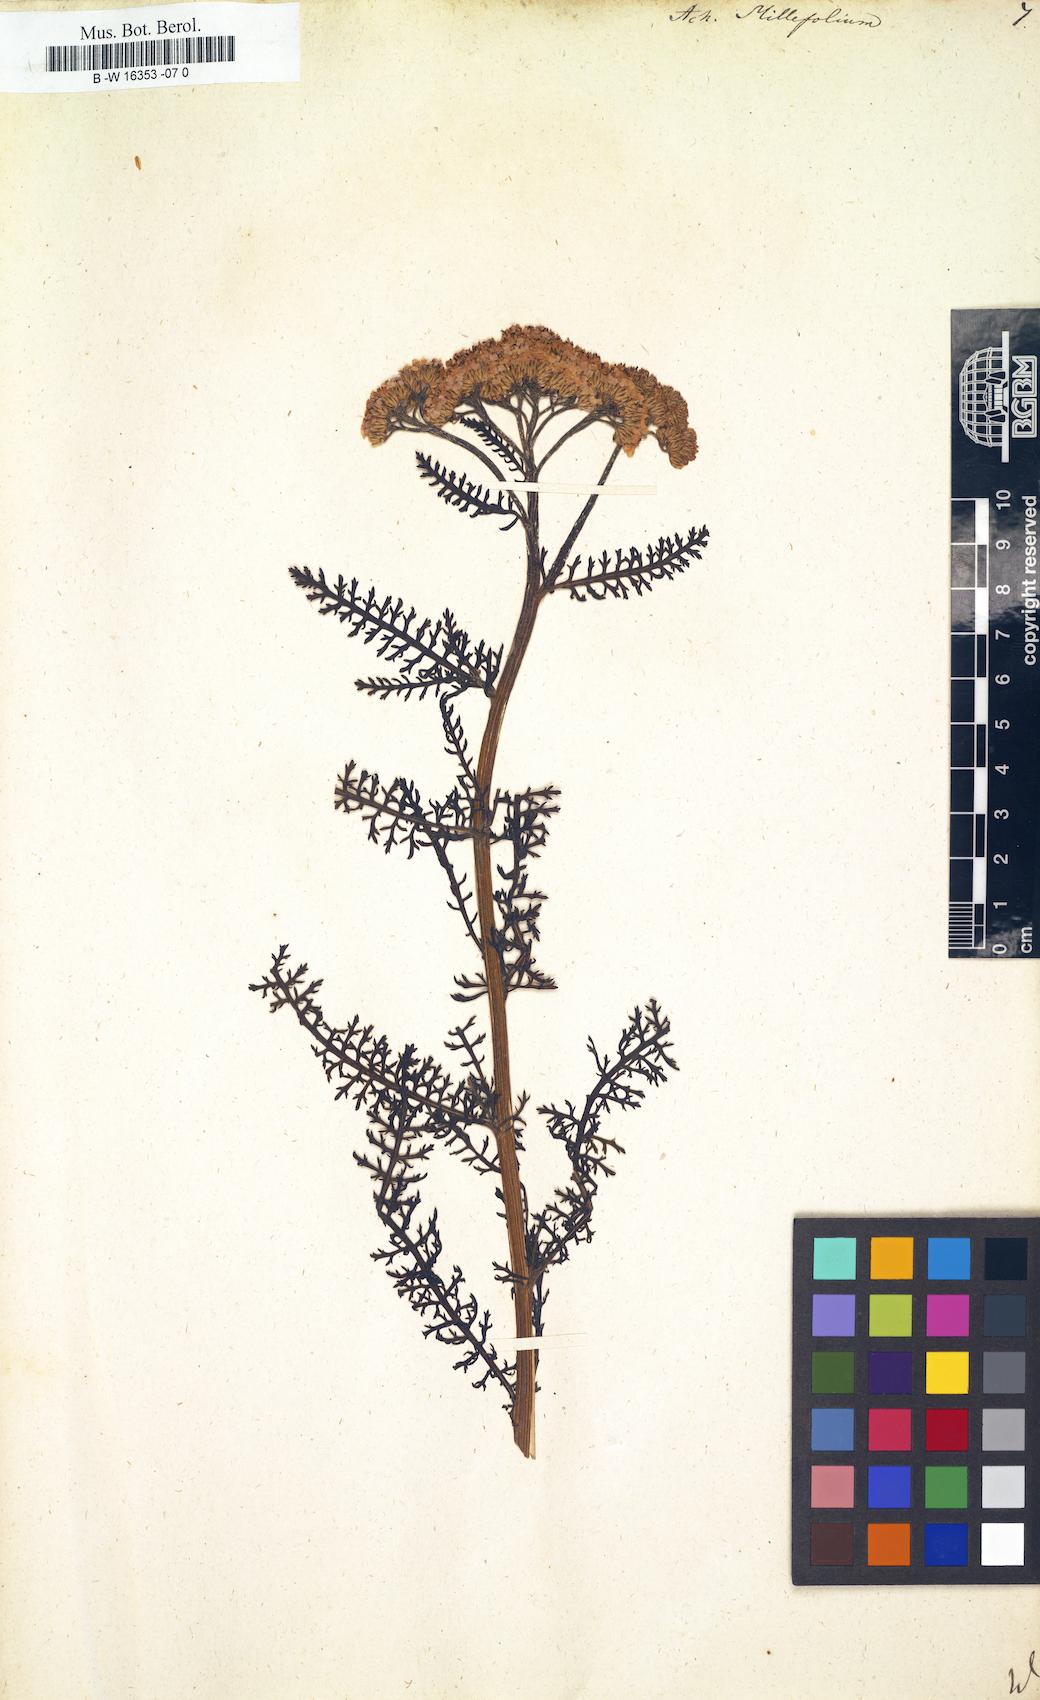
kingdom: Plantae
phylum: Tracheophyta
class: Magnoliopsida
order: Asterales
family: Asteraceae
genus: Achillea
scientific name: Achillea millefolium
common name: Yarrow
